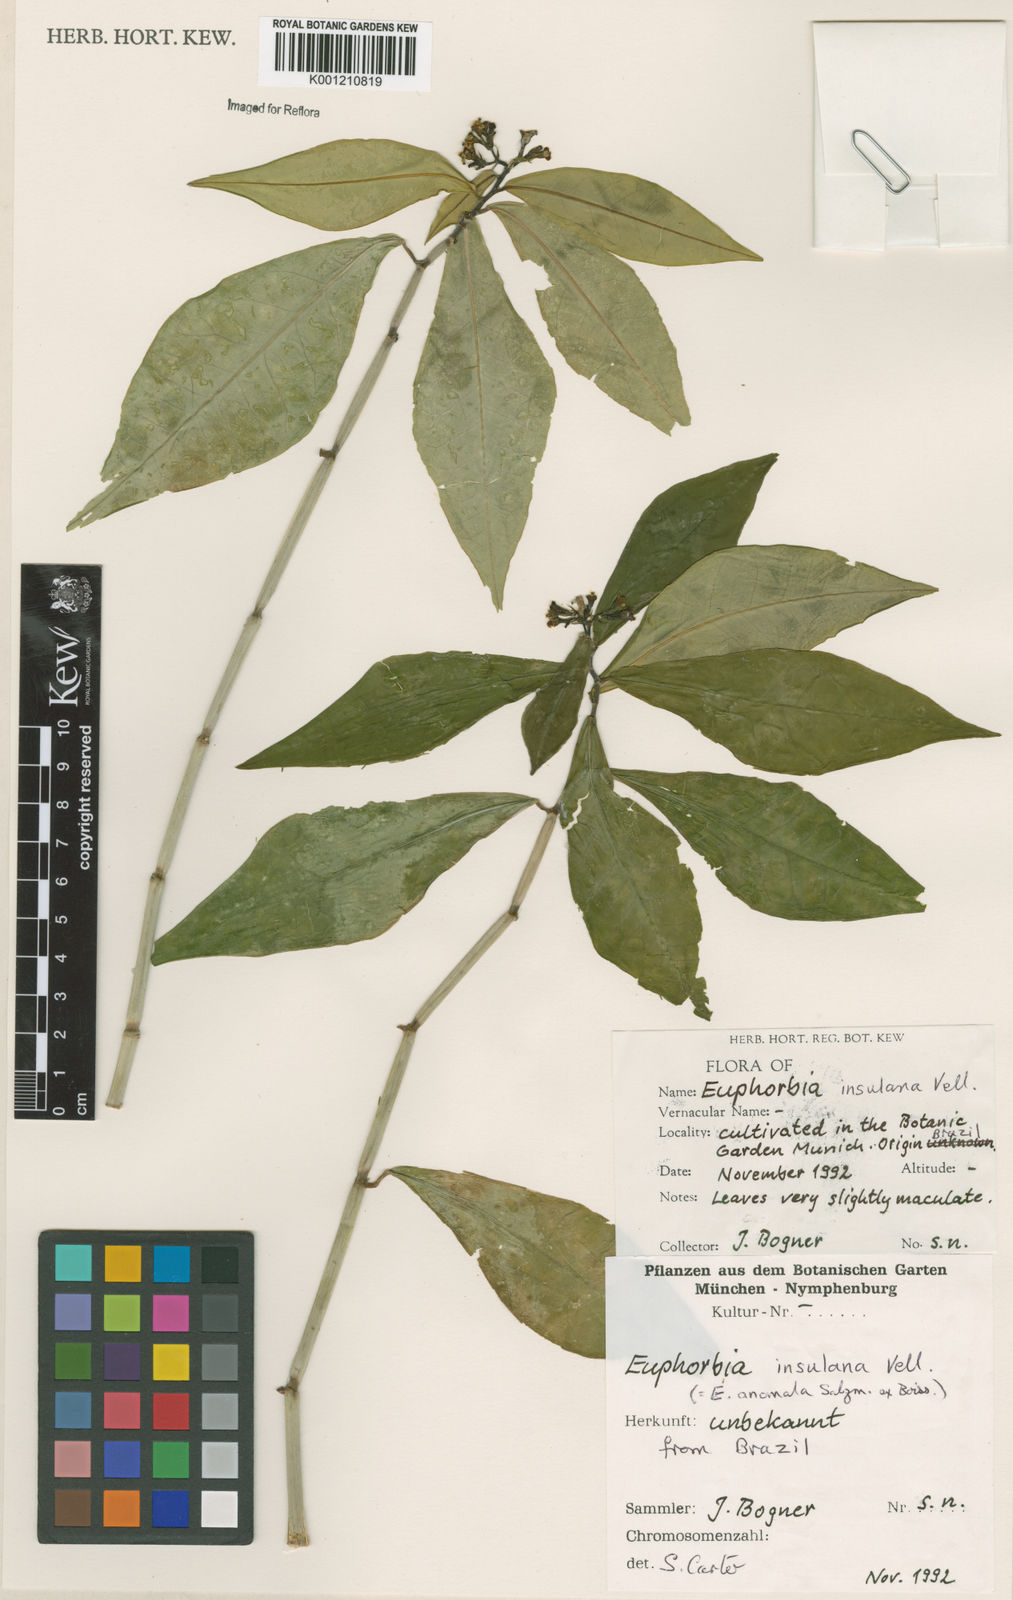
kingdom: Plantae
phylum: Tracheophyta
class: Magnoliopsida
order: Malpighiales
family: Euphorbiaceae
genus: Euphorbia
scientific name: Euphorbia insulana
